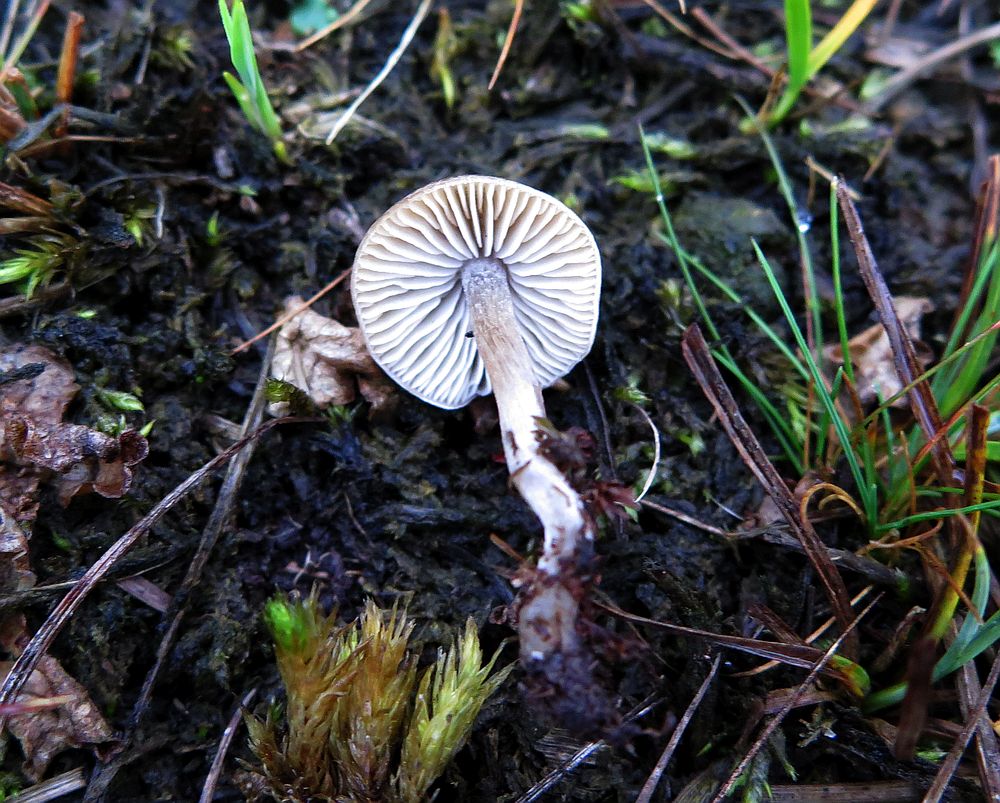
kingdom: Fungi
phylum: Basidiomycota
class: Agaricomycetes
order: Agaricales
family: Lyophyllaceae
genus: Sagaranella
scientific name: Sagaranella tylicolor
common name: kvælstof-gråblad
